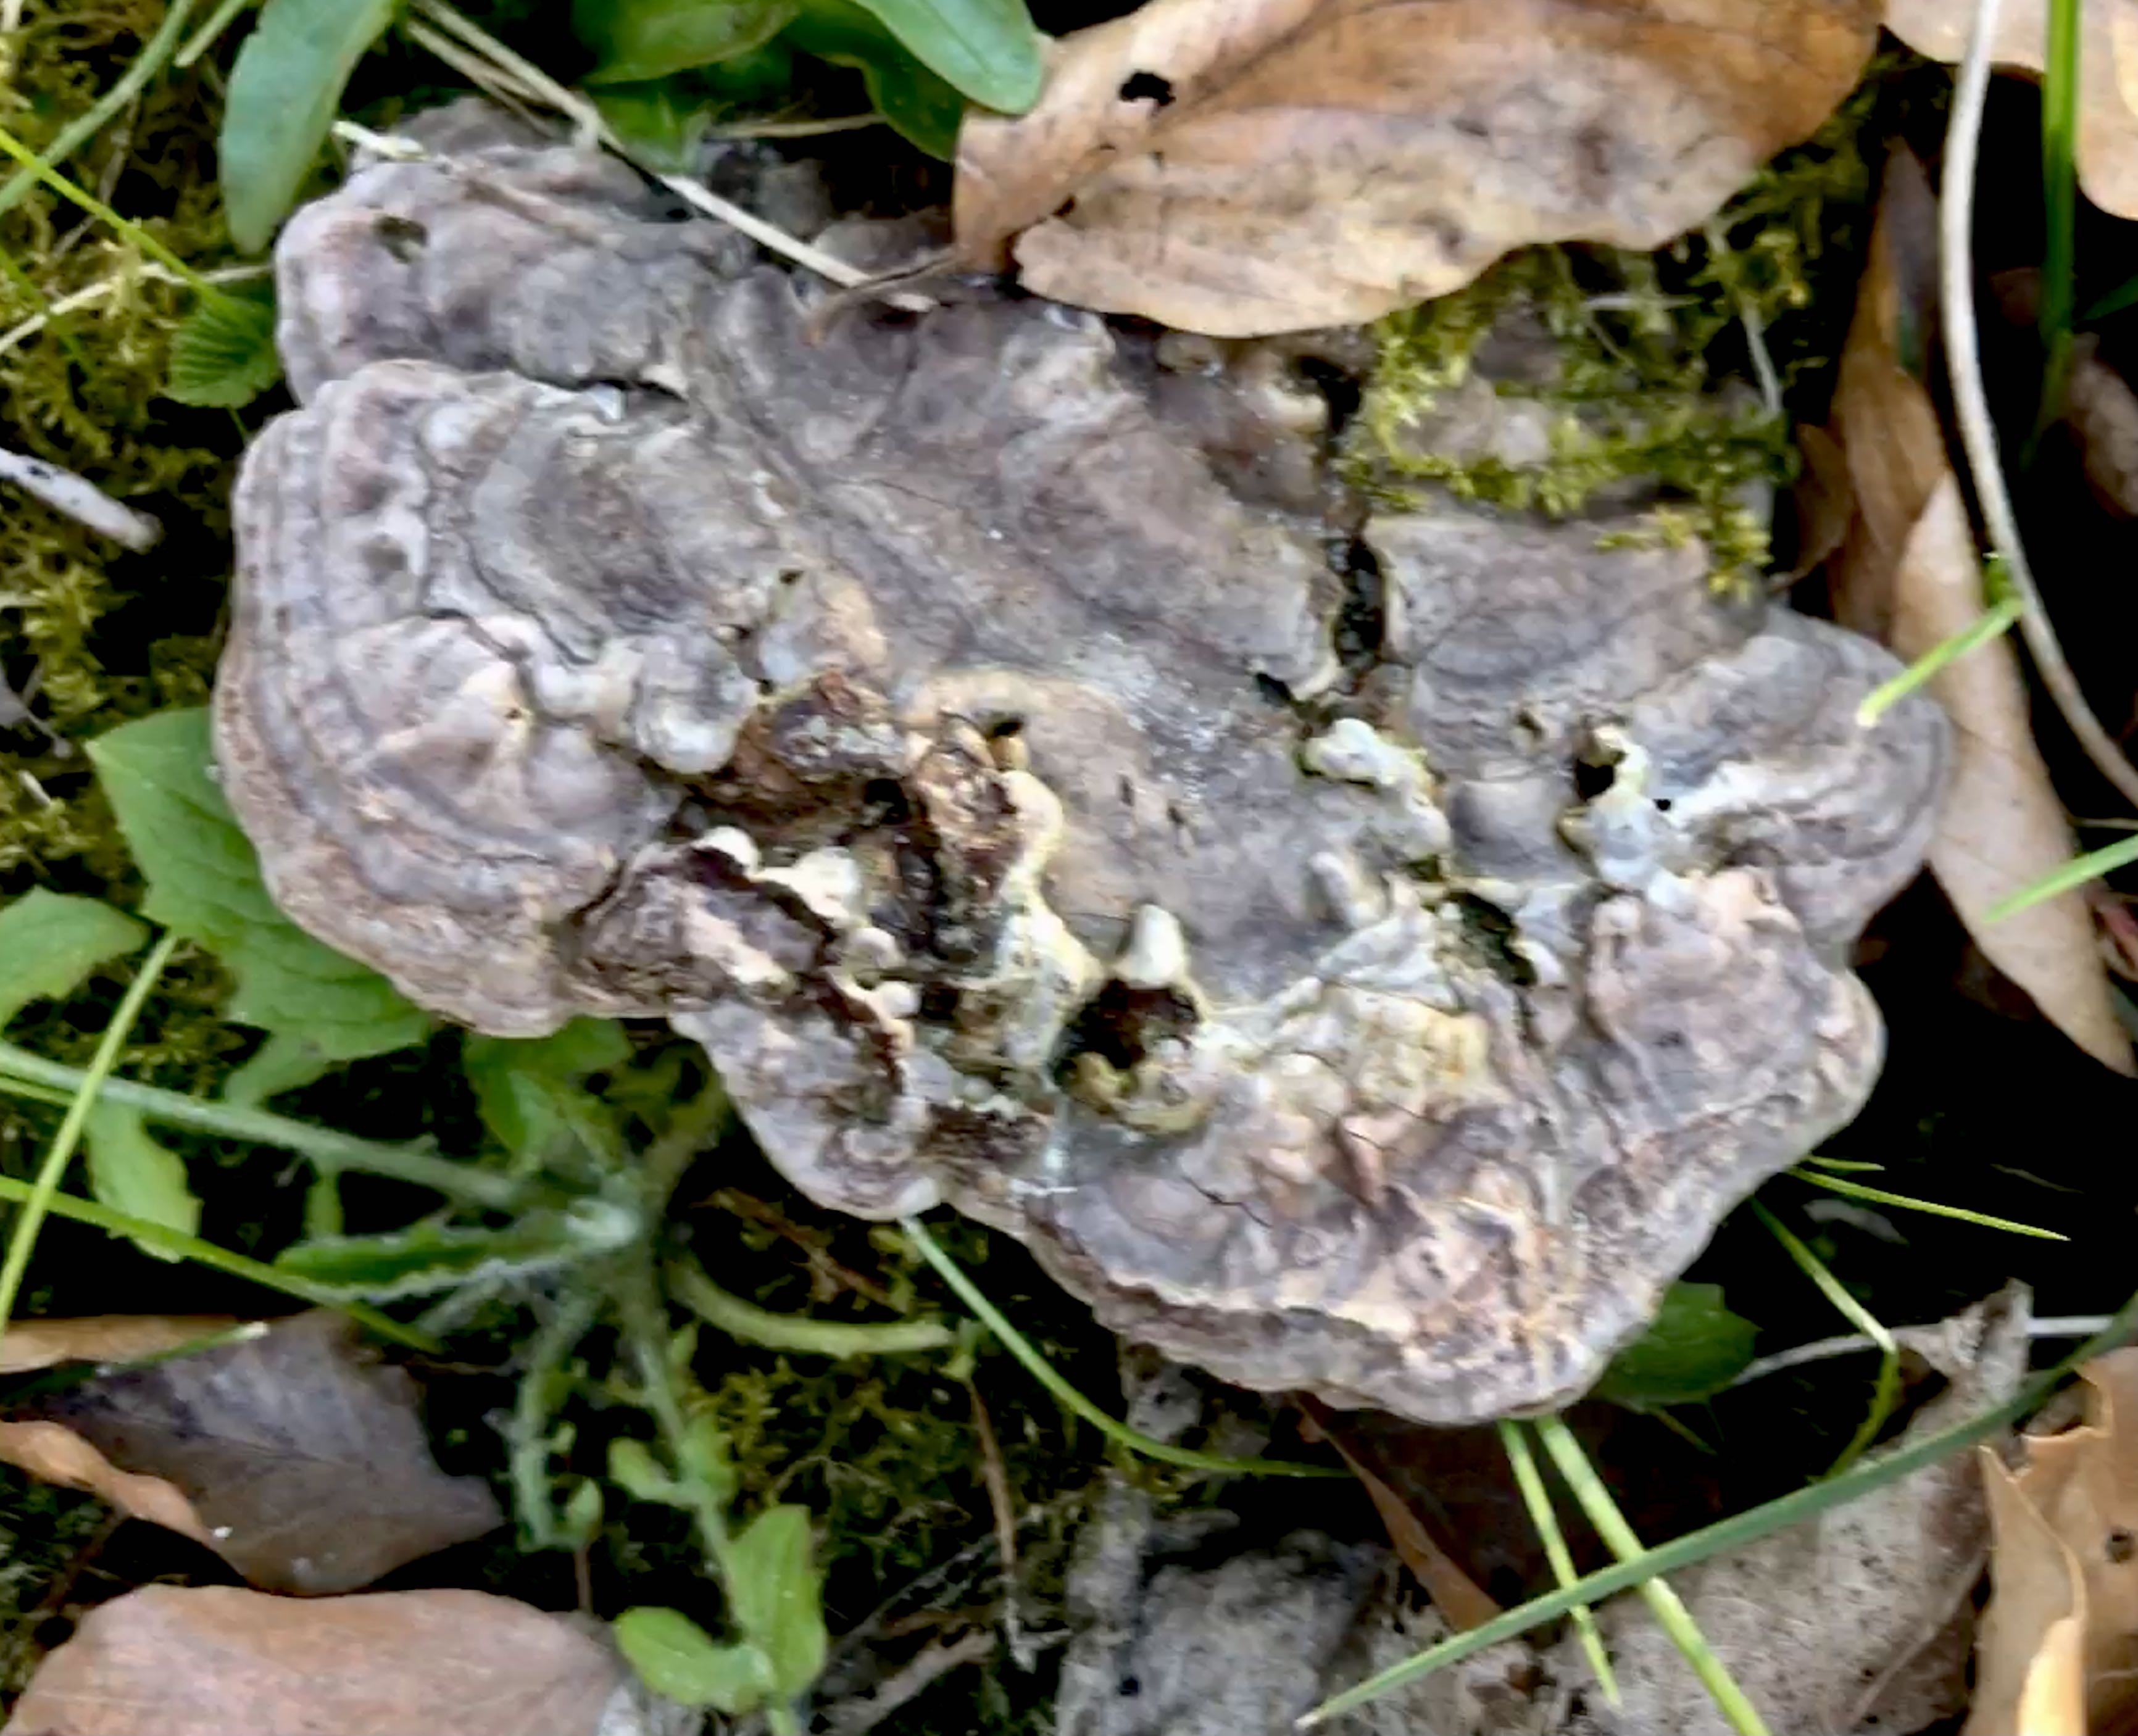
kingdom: Fungi
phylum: Basidiomycota
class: Agaricomycetes
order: Polyporales
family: Polyporaceae
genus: Ganoderma
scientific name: Ganoderma applanatum
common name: flad lakporesvamp
